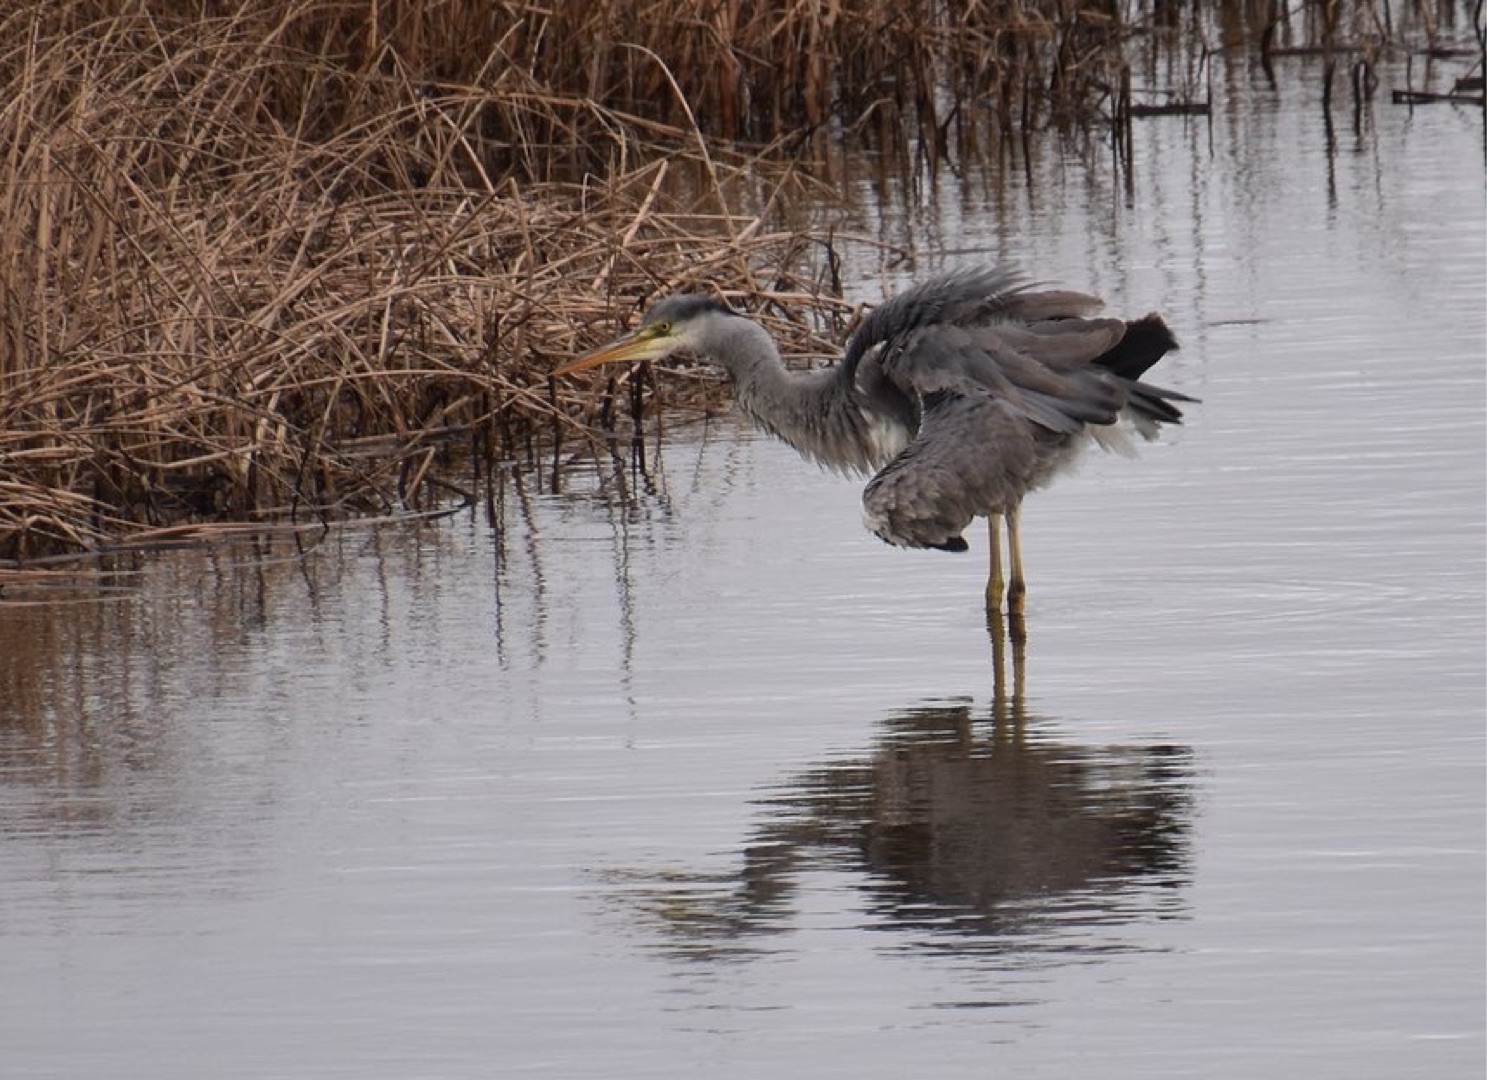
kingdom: Animalia
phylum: Chordata
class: Aves
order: Pelecaniformes
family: Ardeidae
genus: Ardea
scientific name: Ardea cinerea
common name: Fiskehejre
